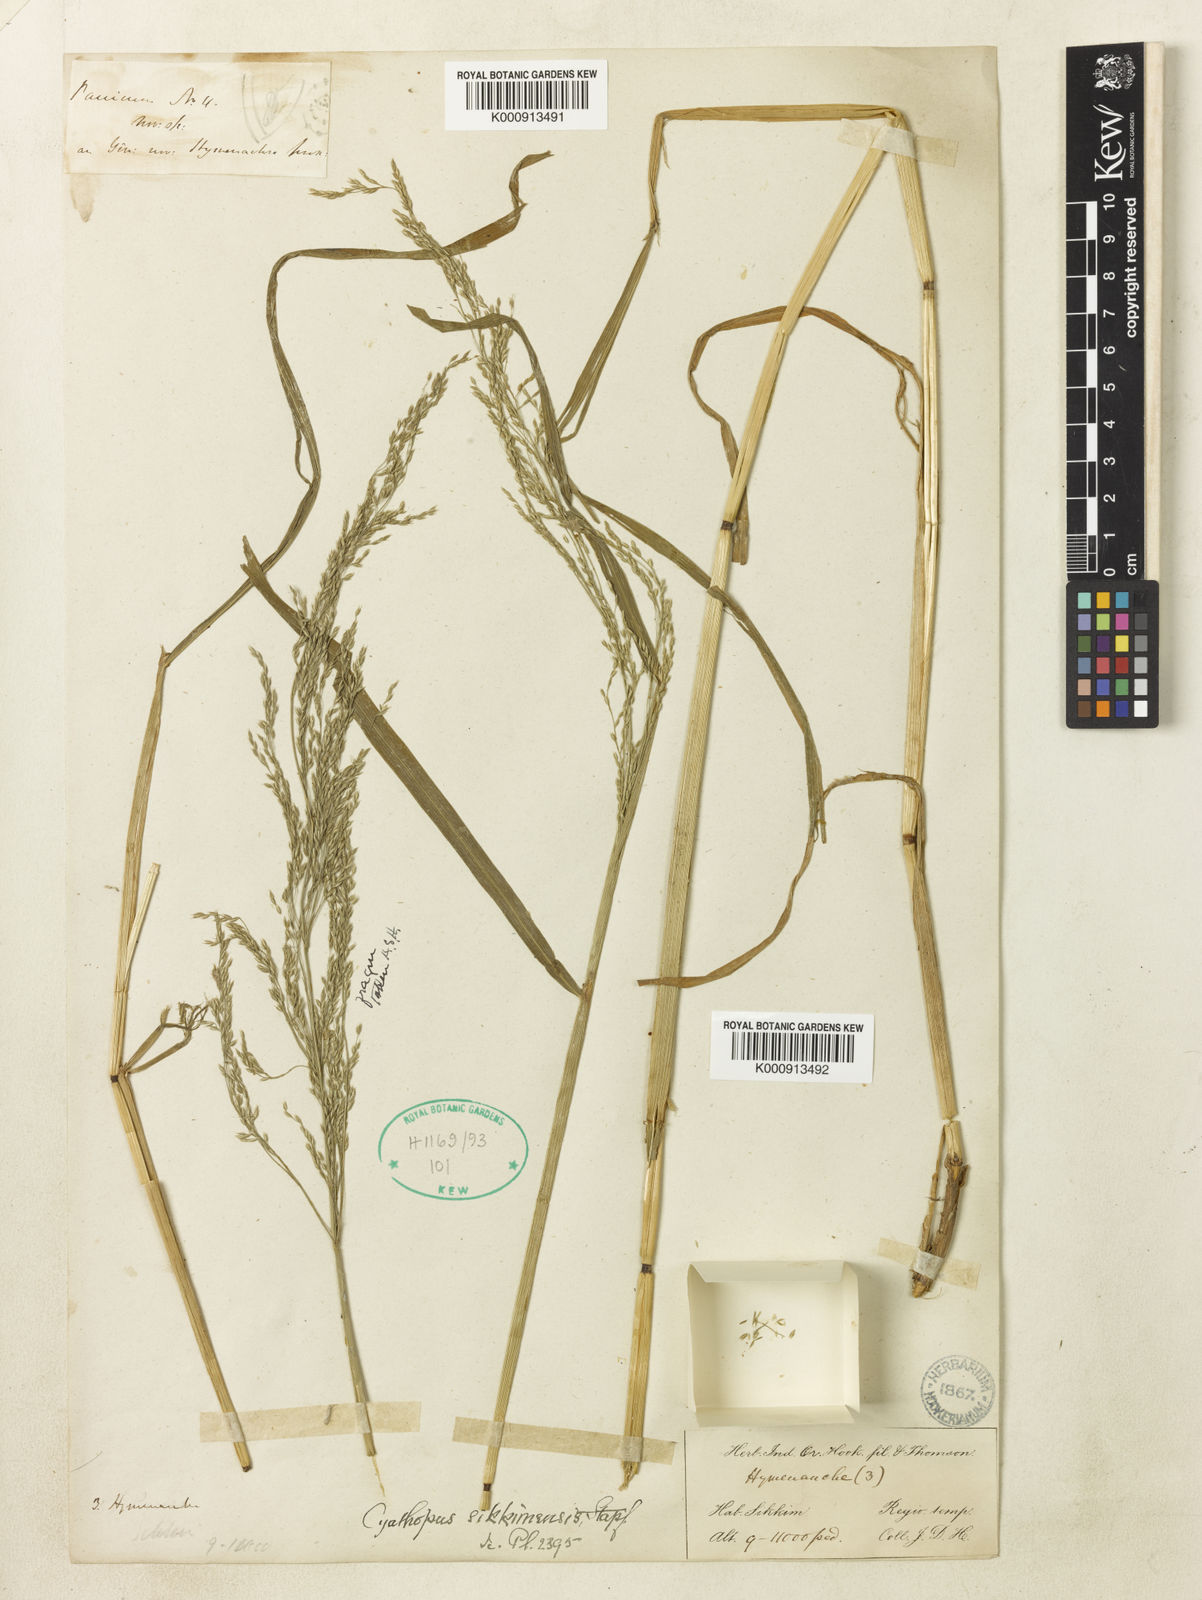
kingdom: Plantae
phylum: Tracheophyta
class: Liliopsida
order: Poales
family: Poaceae
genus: Cyathopus
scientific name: Cyathopus sikkimensis
